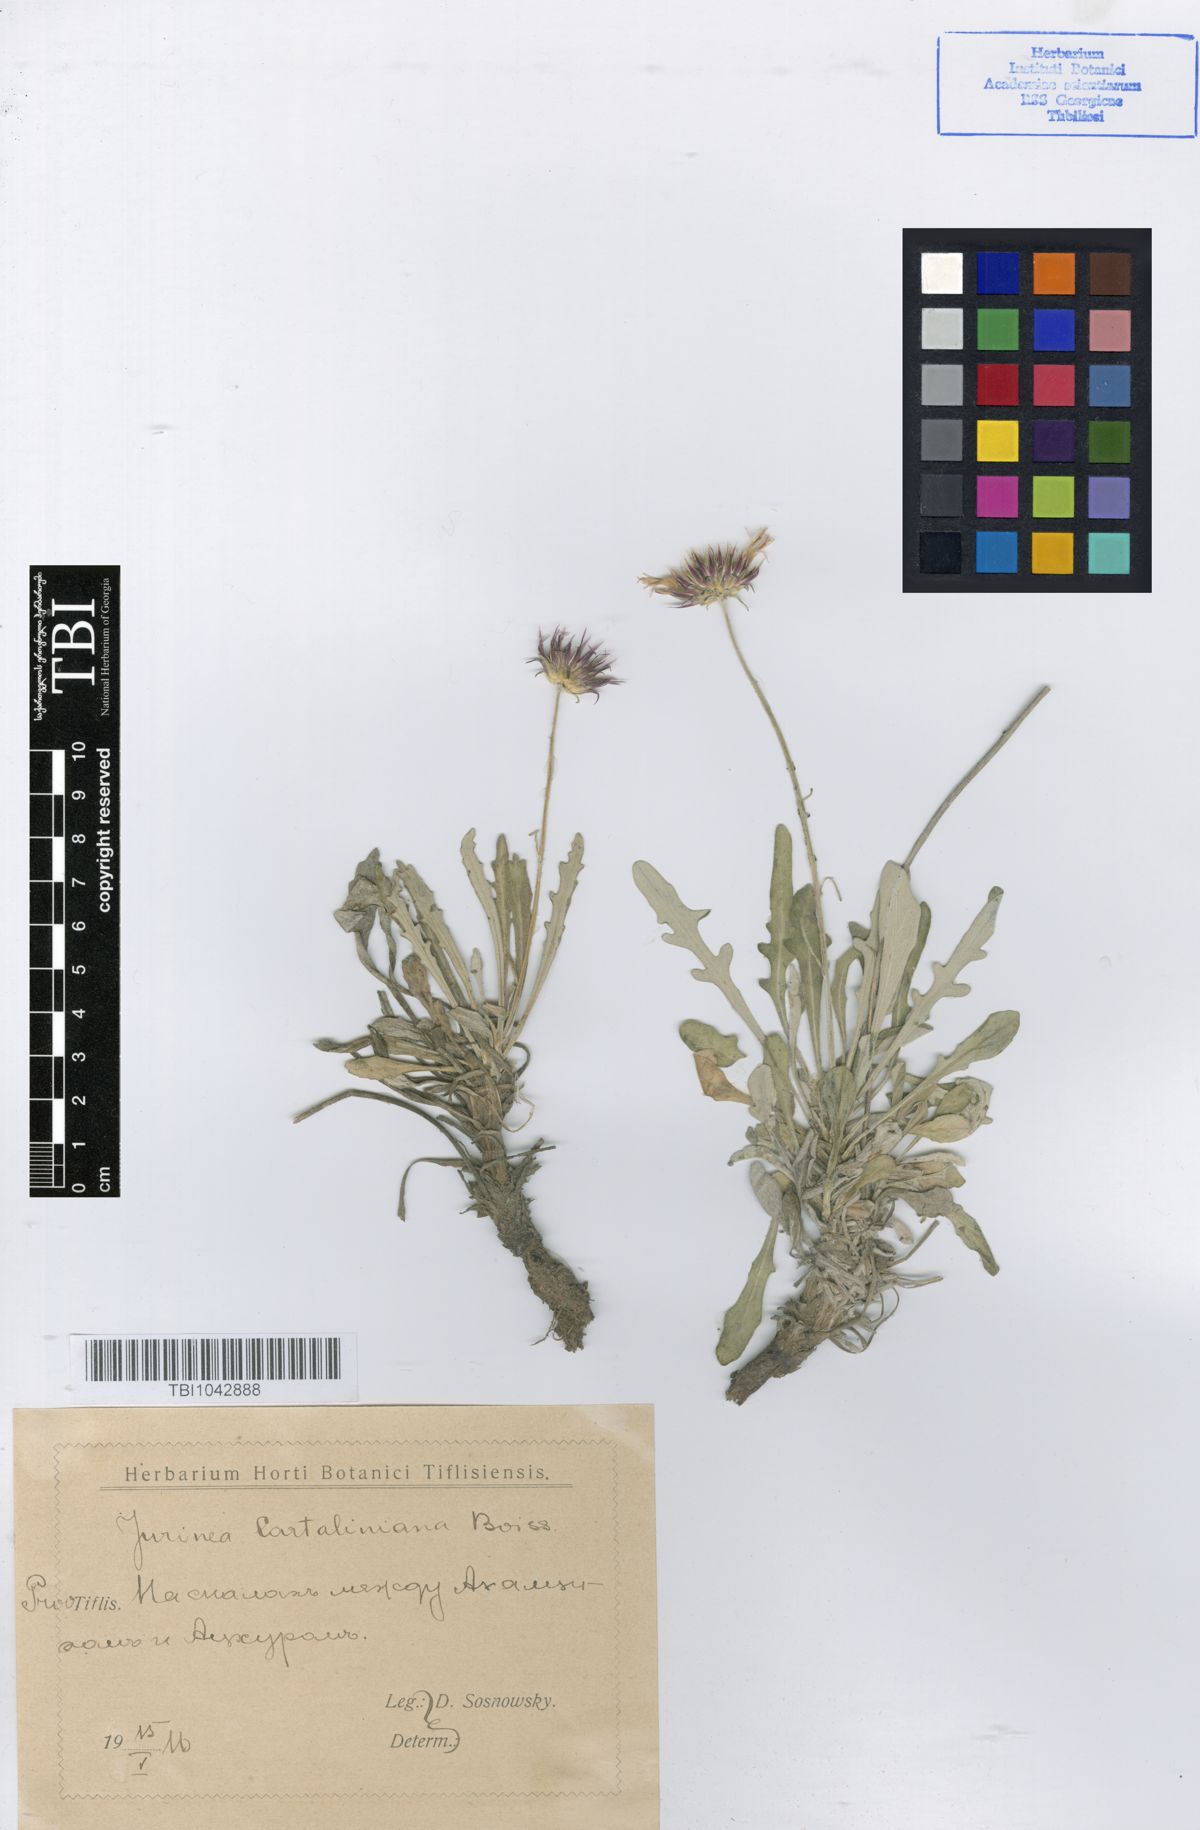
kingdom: Plantae
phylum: Tracheophyta
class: Magnoliopsida
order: Asterales
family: Asteraceae
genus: Jurinea
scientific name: Jurinea cartaliniana
